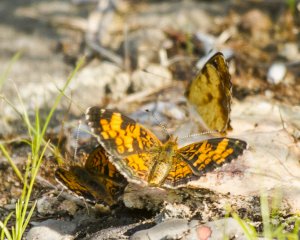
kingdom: Animalia
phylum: Arthropoda
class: Insecta
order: Lepidoptera
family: Nymphalidae
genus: Phyciodes
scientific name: Phyciodes tharos
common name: Northern Crescent
